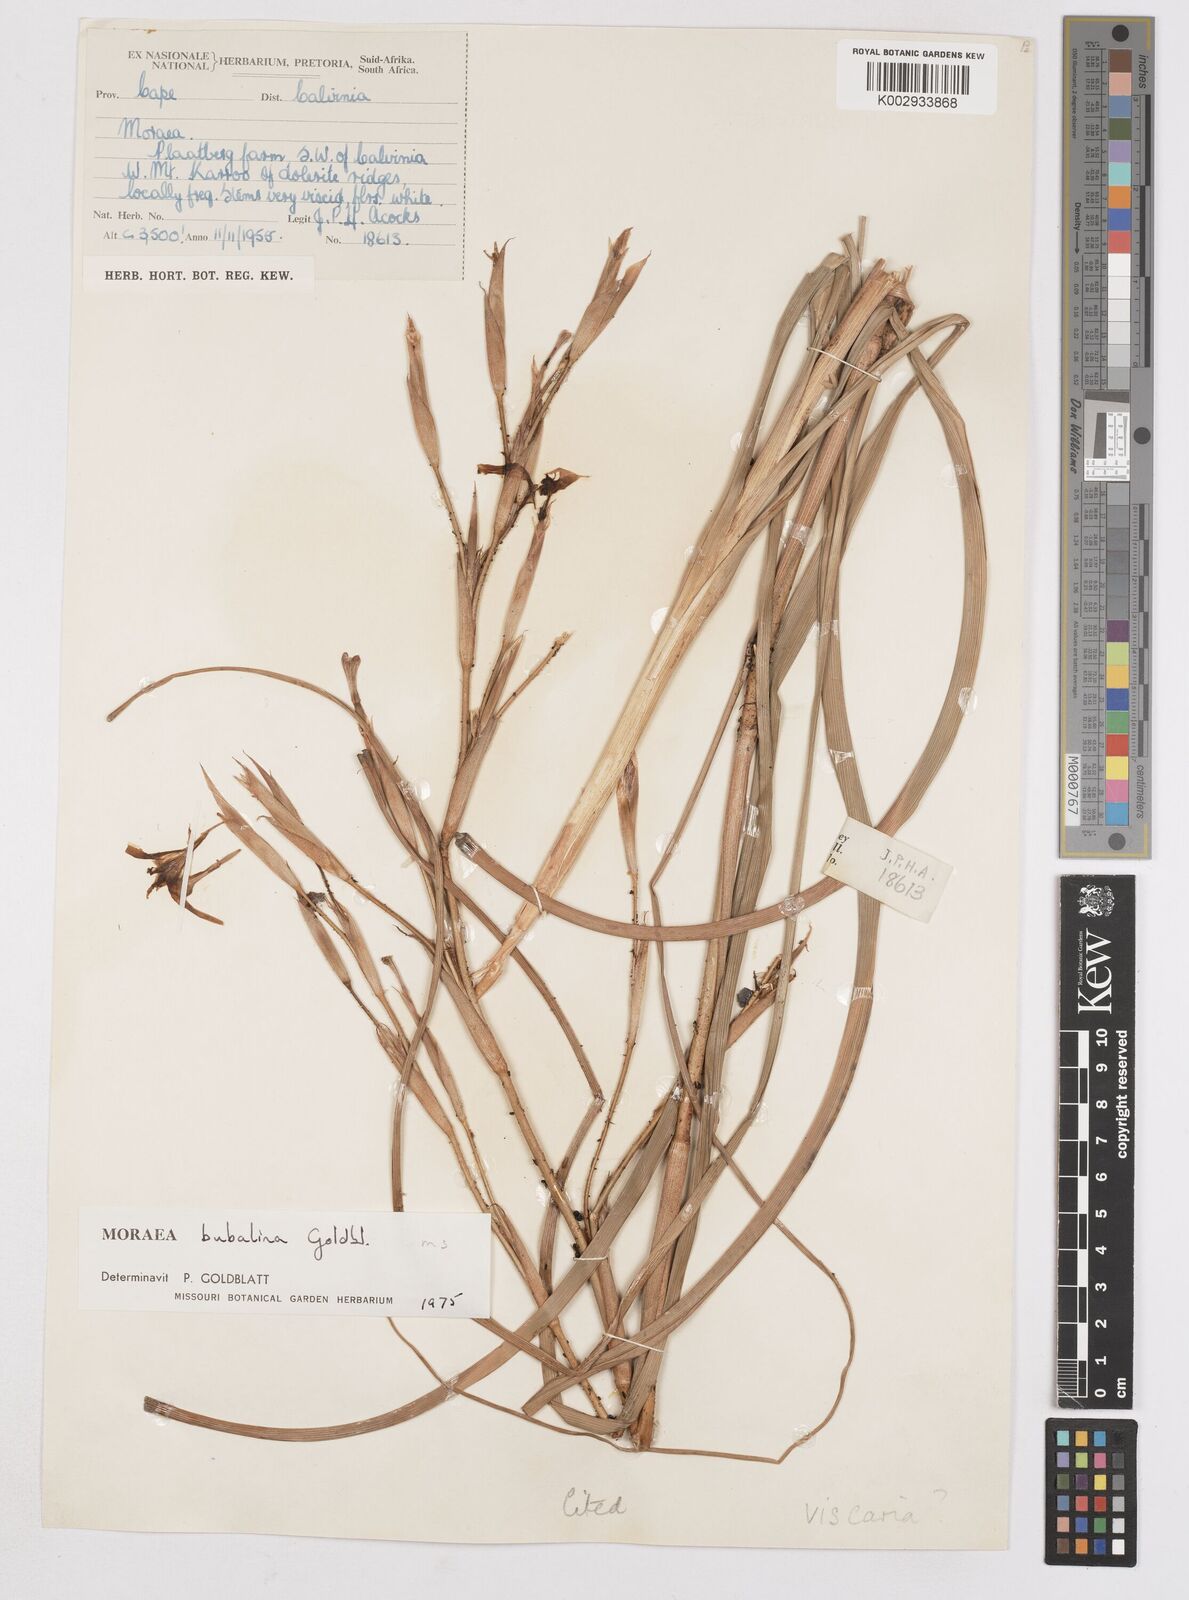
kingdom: Plantae
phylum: Tracheophyta
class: Liliopsida
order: Asparagales
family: Iridaceae
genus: Moraea
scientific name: Moraea bubalina
